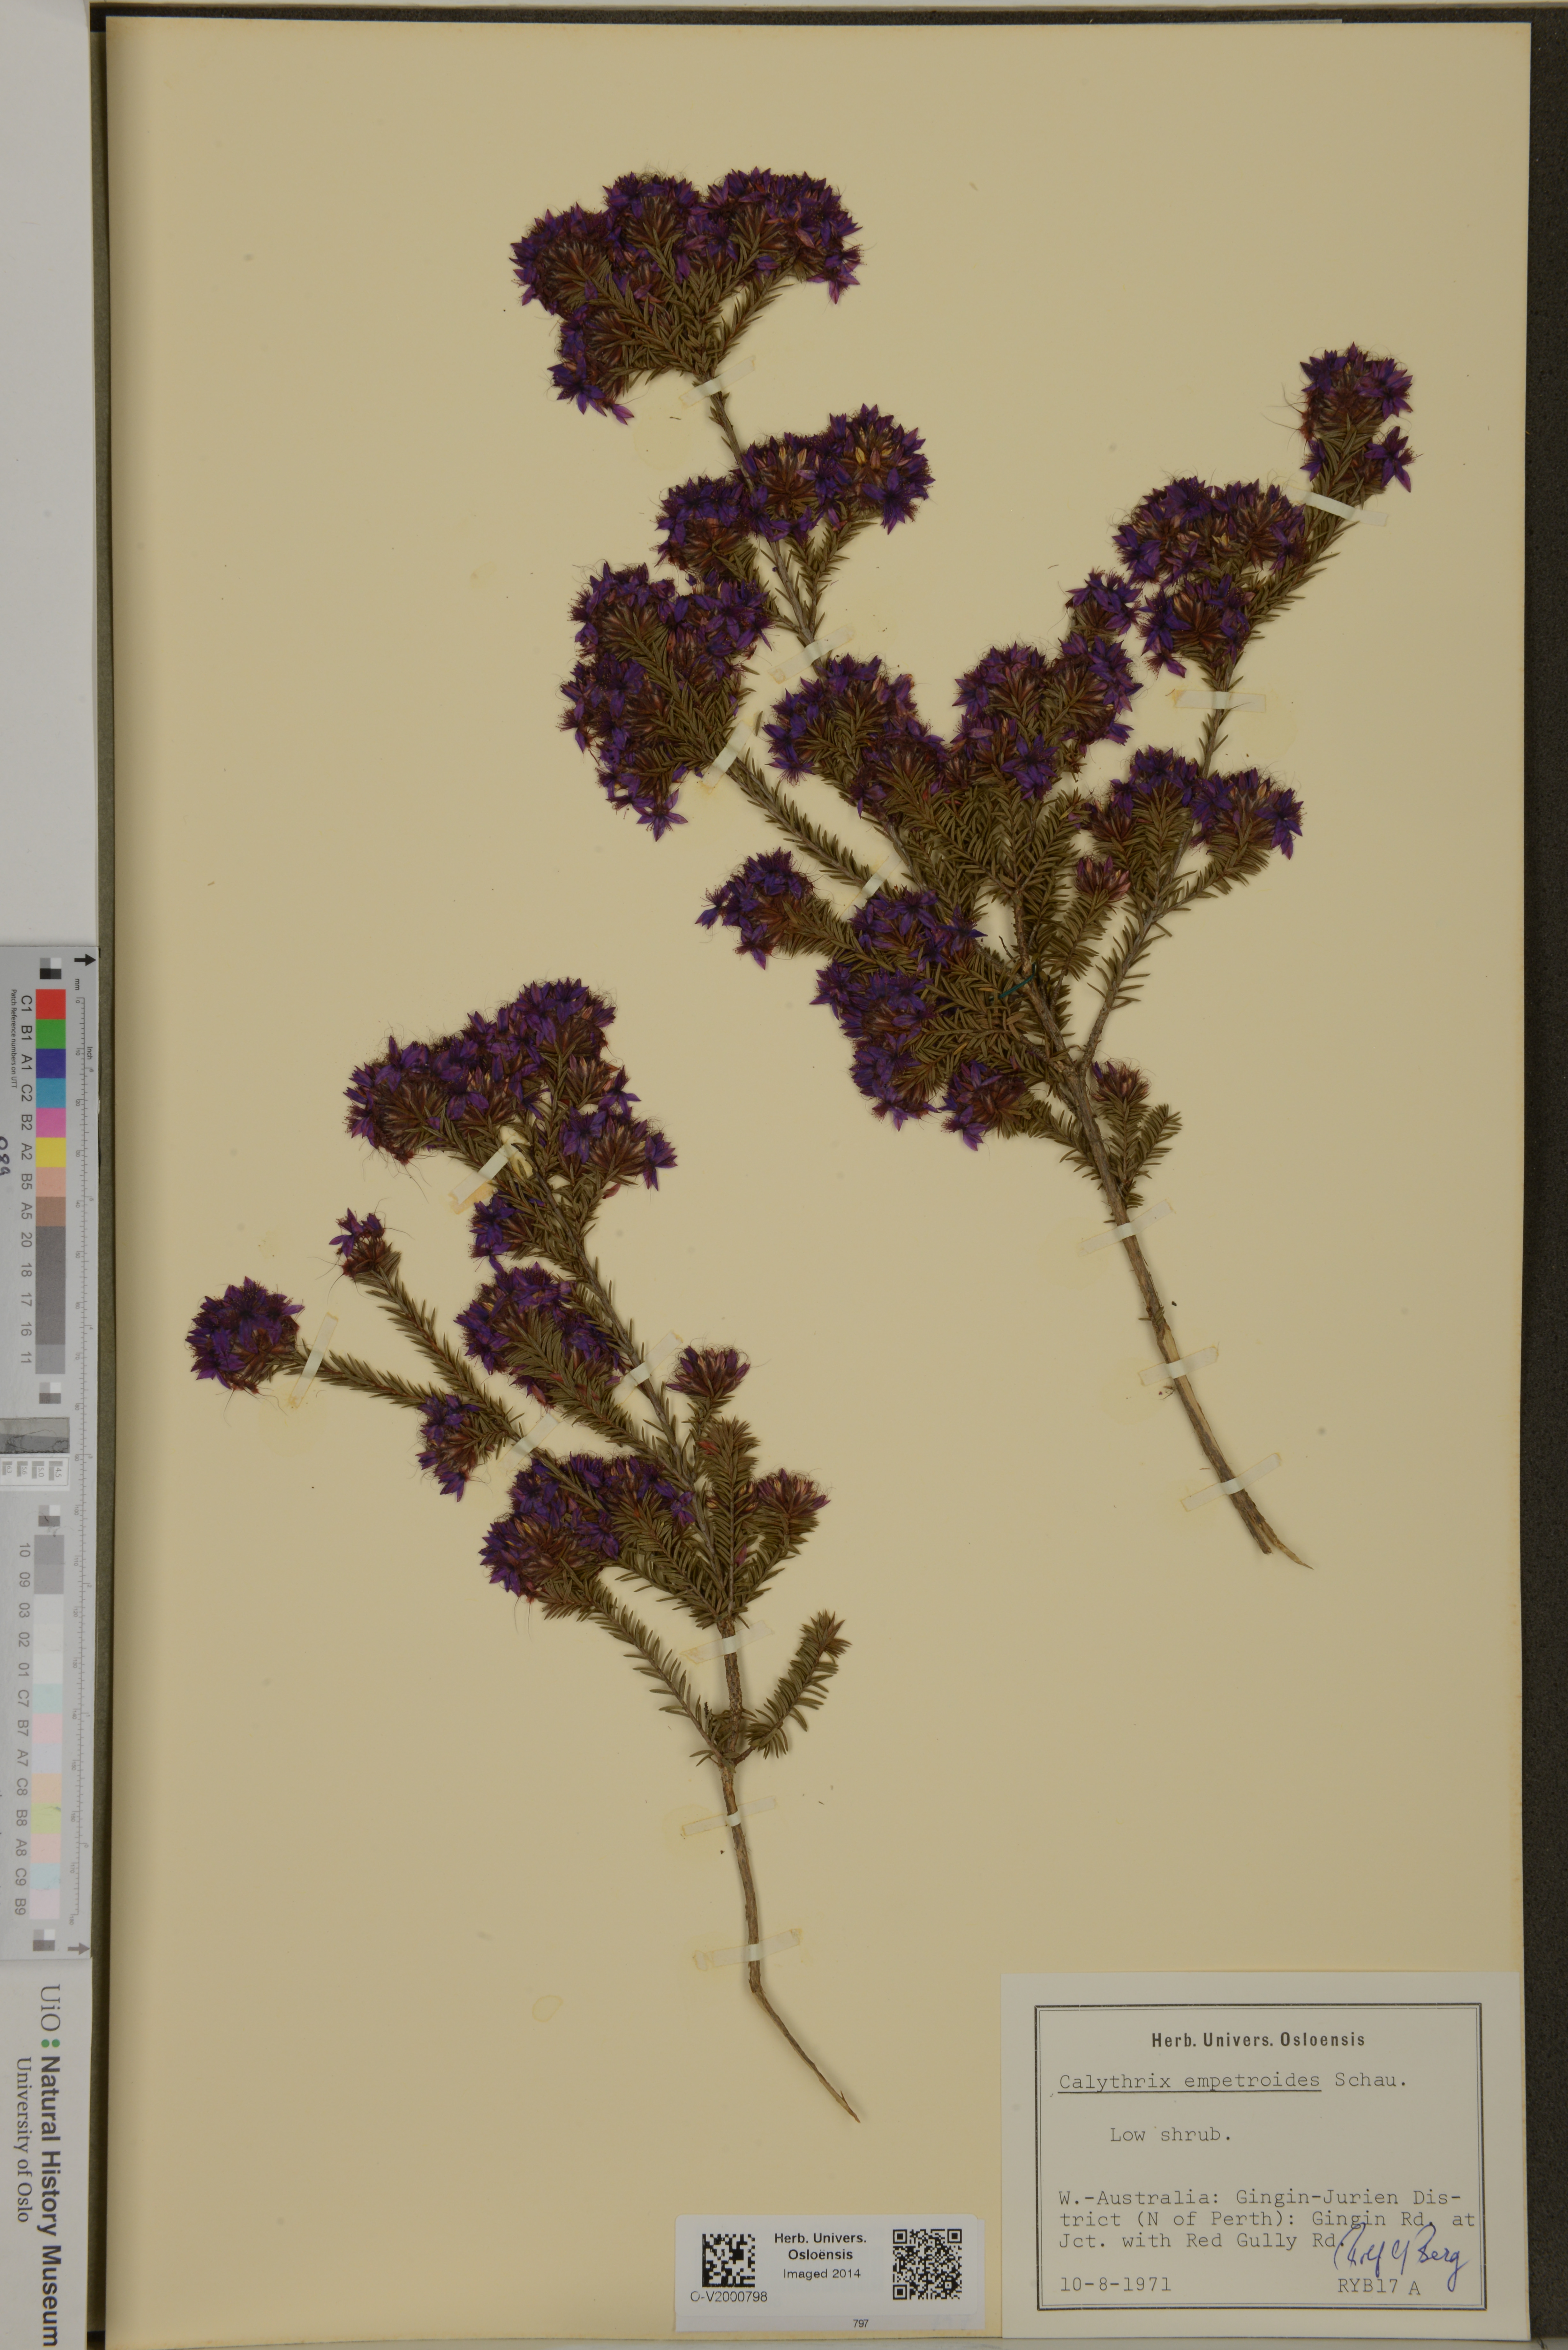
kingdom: Plantae
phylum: Tracheophyta
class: Magnoliopsida
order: Myrtales
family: Myrtaceae
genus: Calytrix
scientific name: Calytrix
